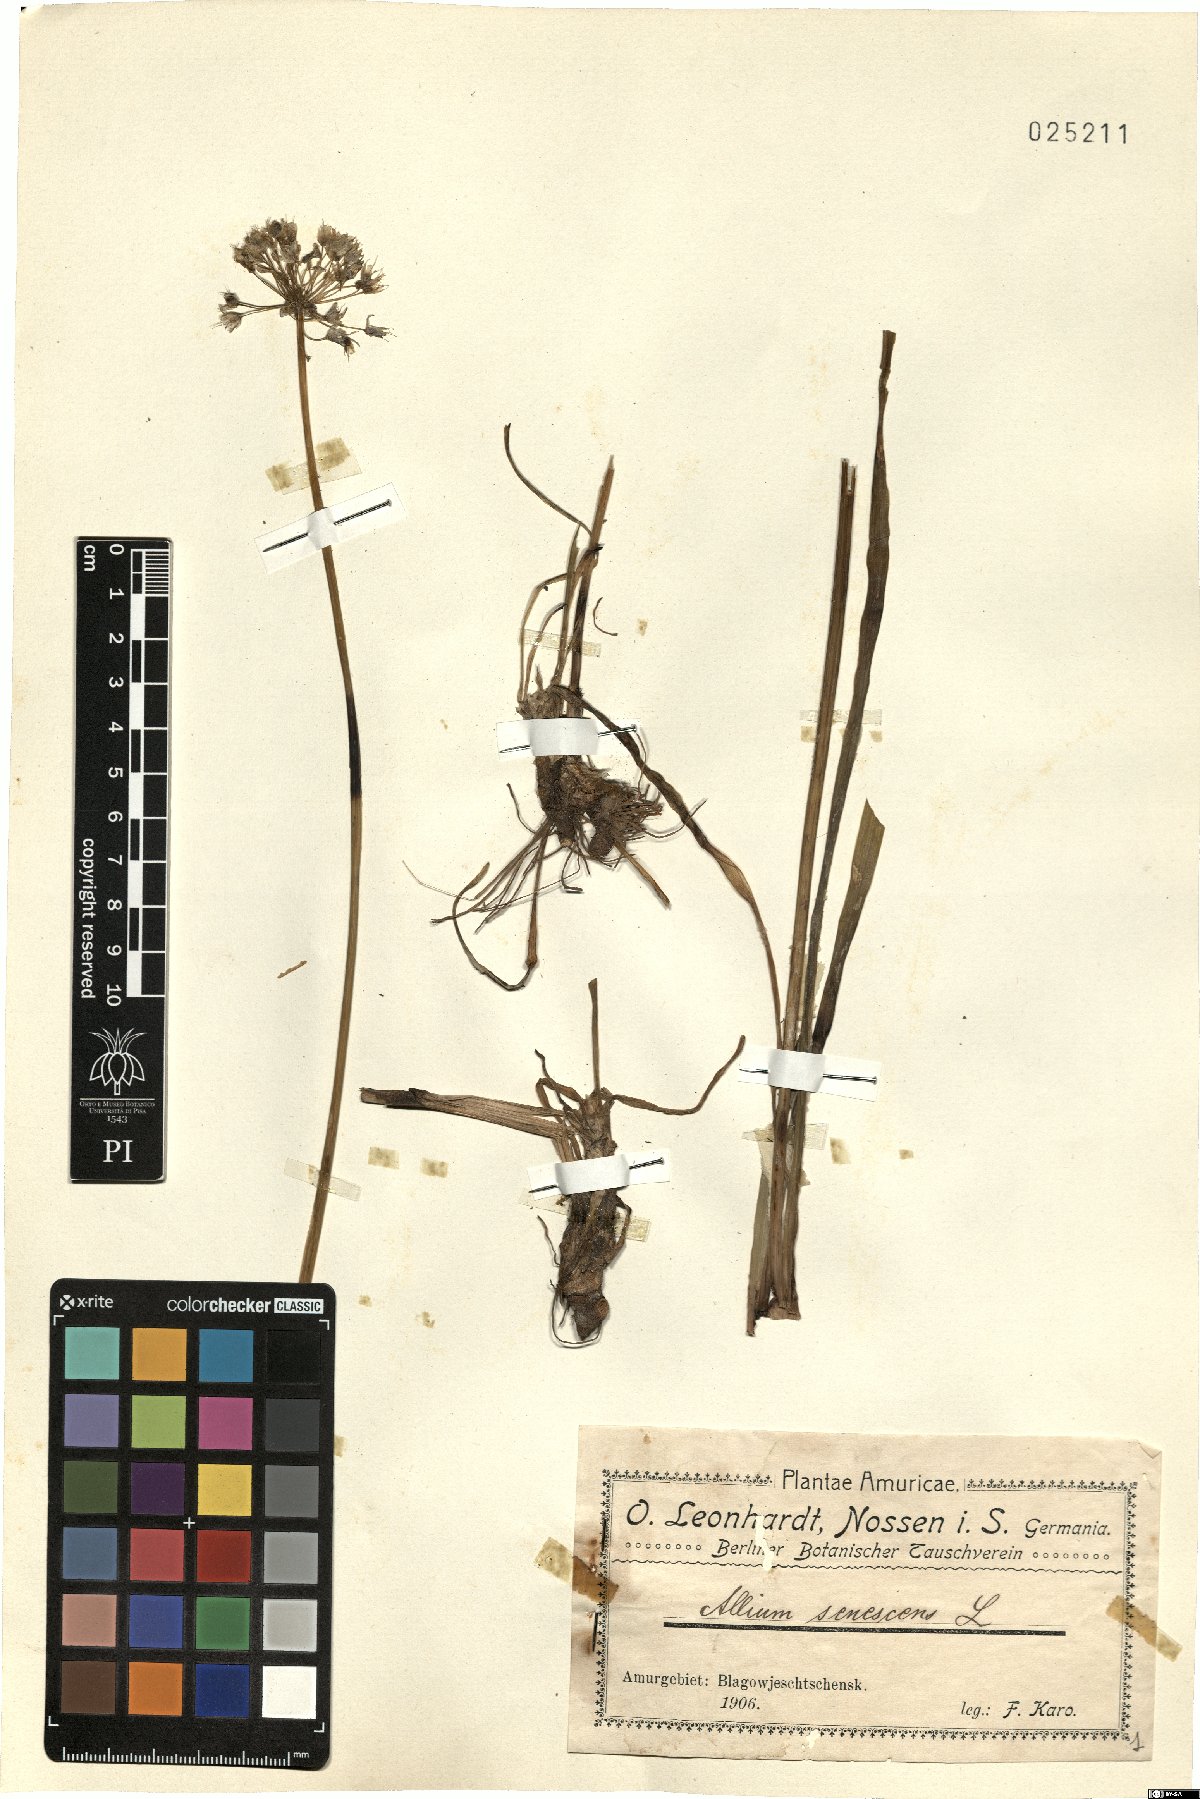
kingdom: Plantae
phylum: Tracheophyta
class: Liliopsida
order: Asparagales
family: Amaryllidaceae
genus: Allium
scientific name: Allium senescens
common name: German garlic
